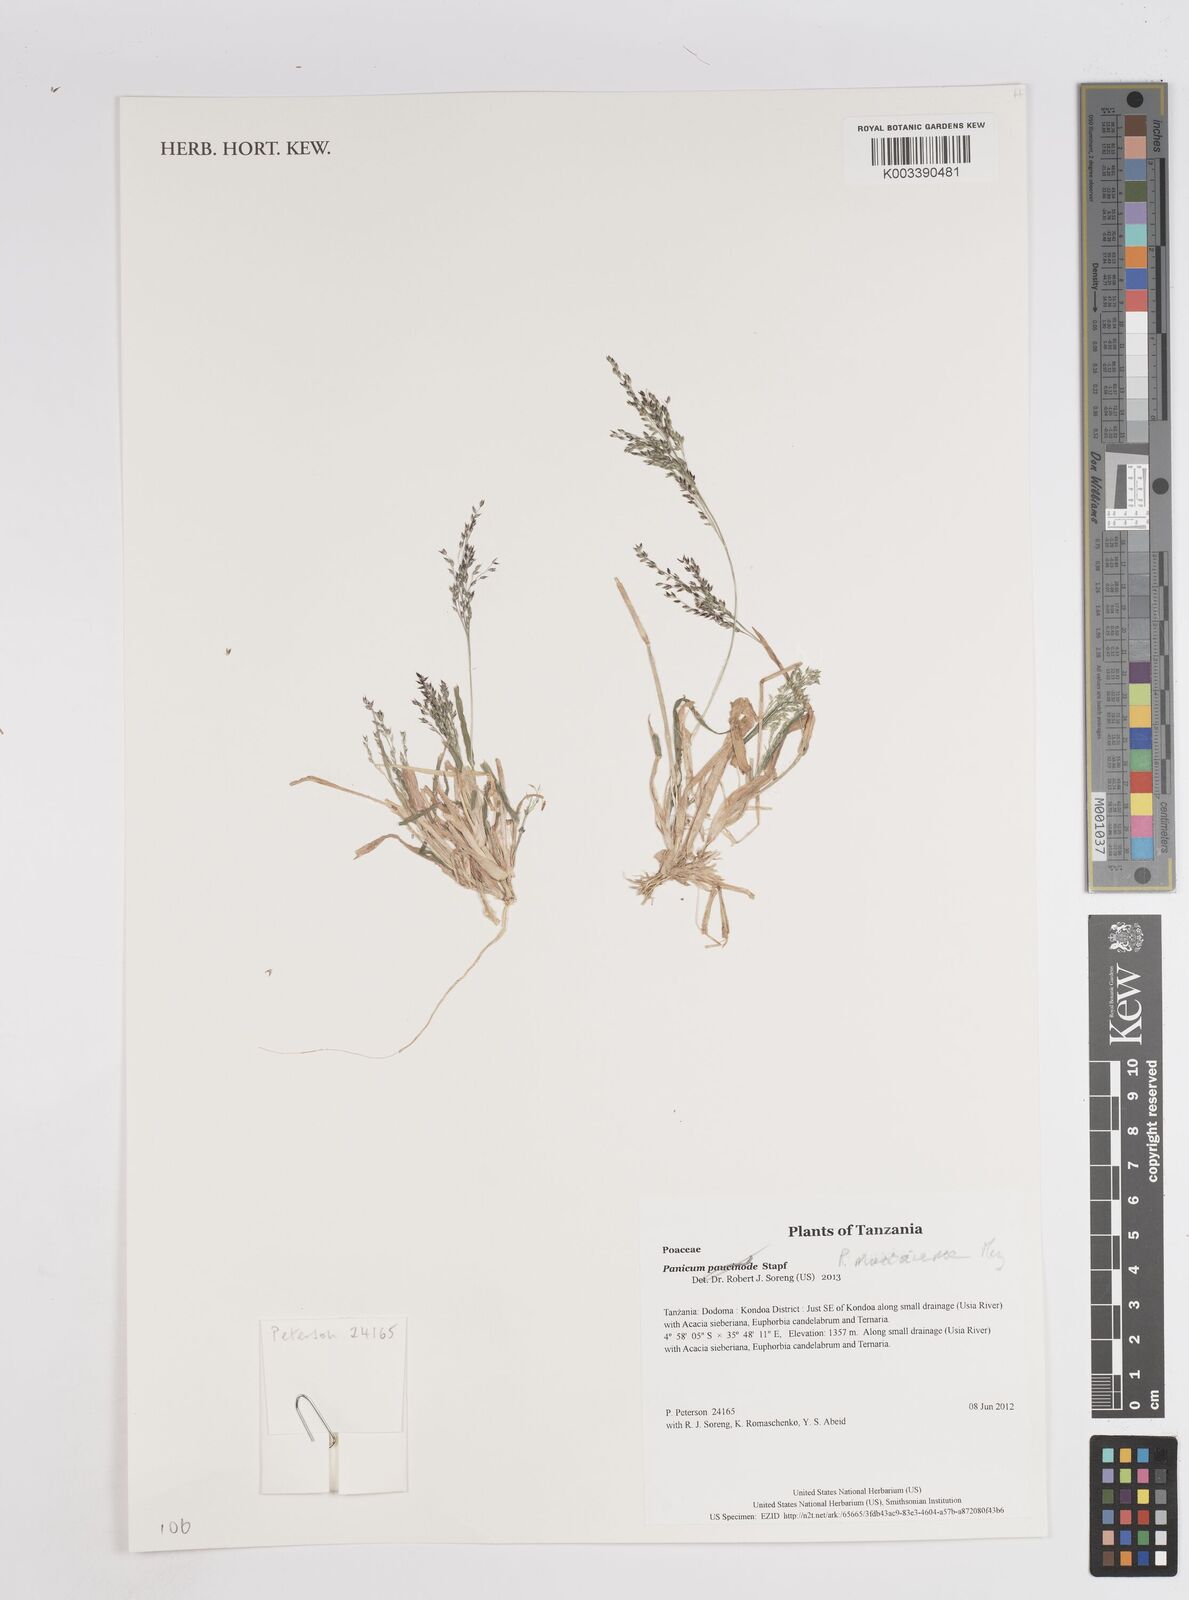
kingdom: Plantae
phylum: Tracheophyta
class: Liliopsida
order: Poales
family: Poaceae
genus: Panicum
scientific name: Panicum massaiense
